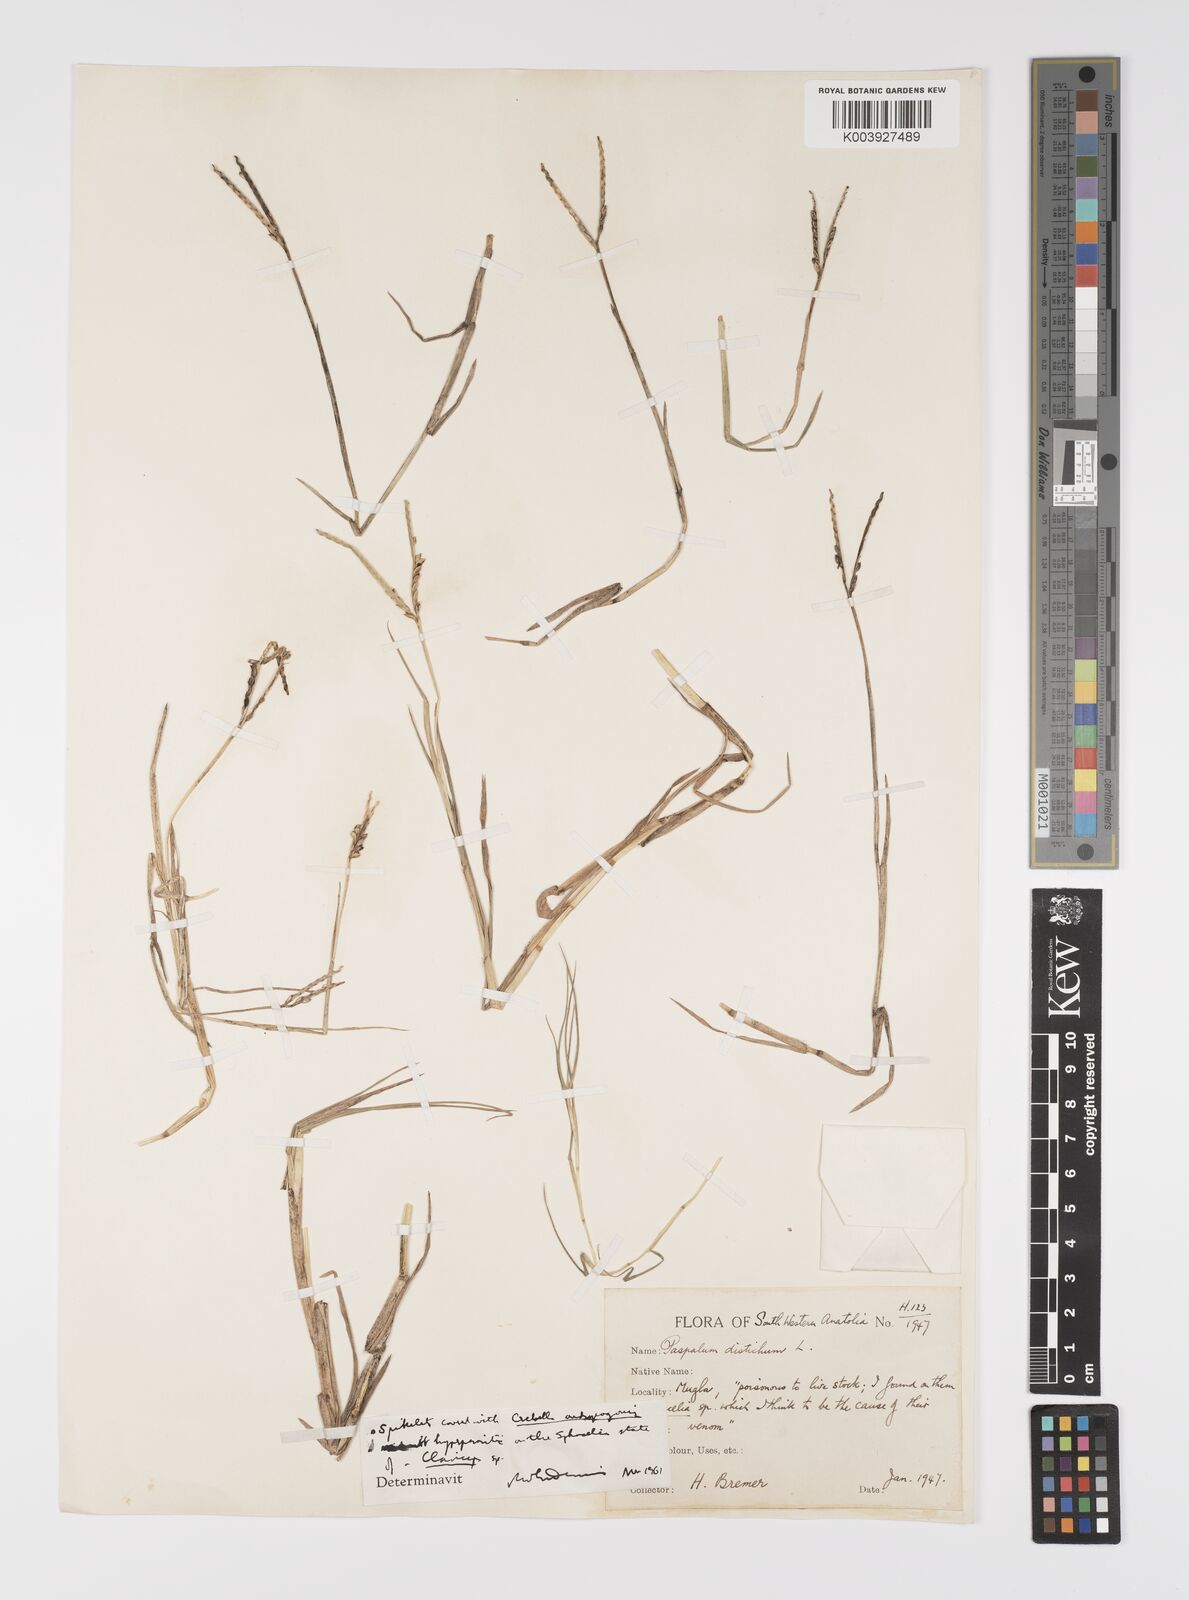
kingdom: Plantae
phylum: Tracheophyta
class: Liliopsida
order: Poales
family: Poaceae
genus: Paspalum
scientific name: Paspalum distichum
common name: Knotgrass
